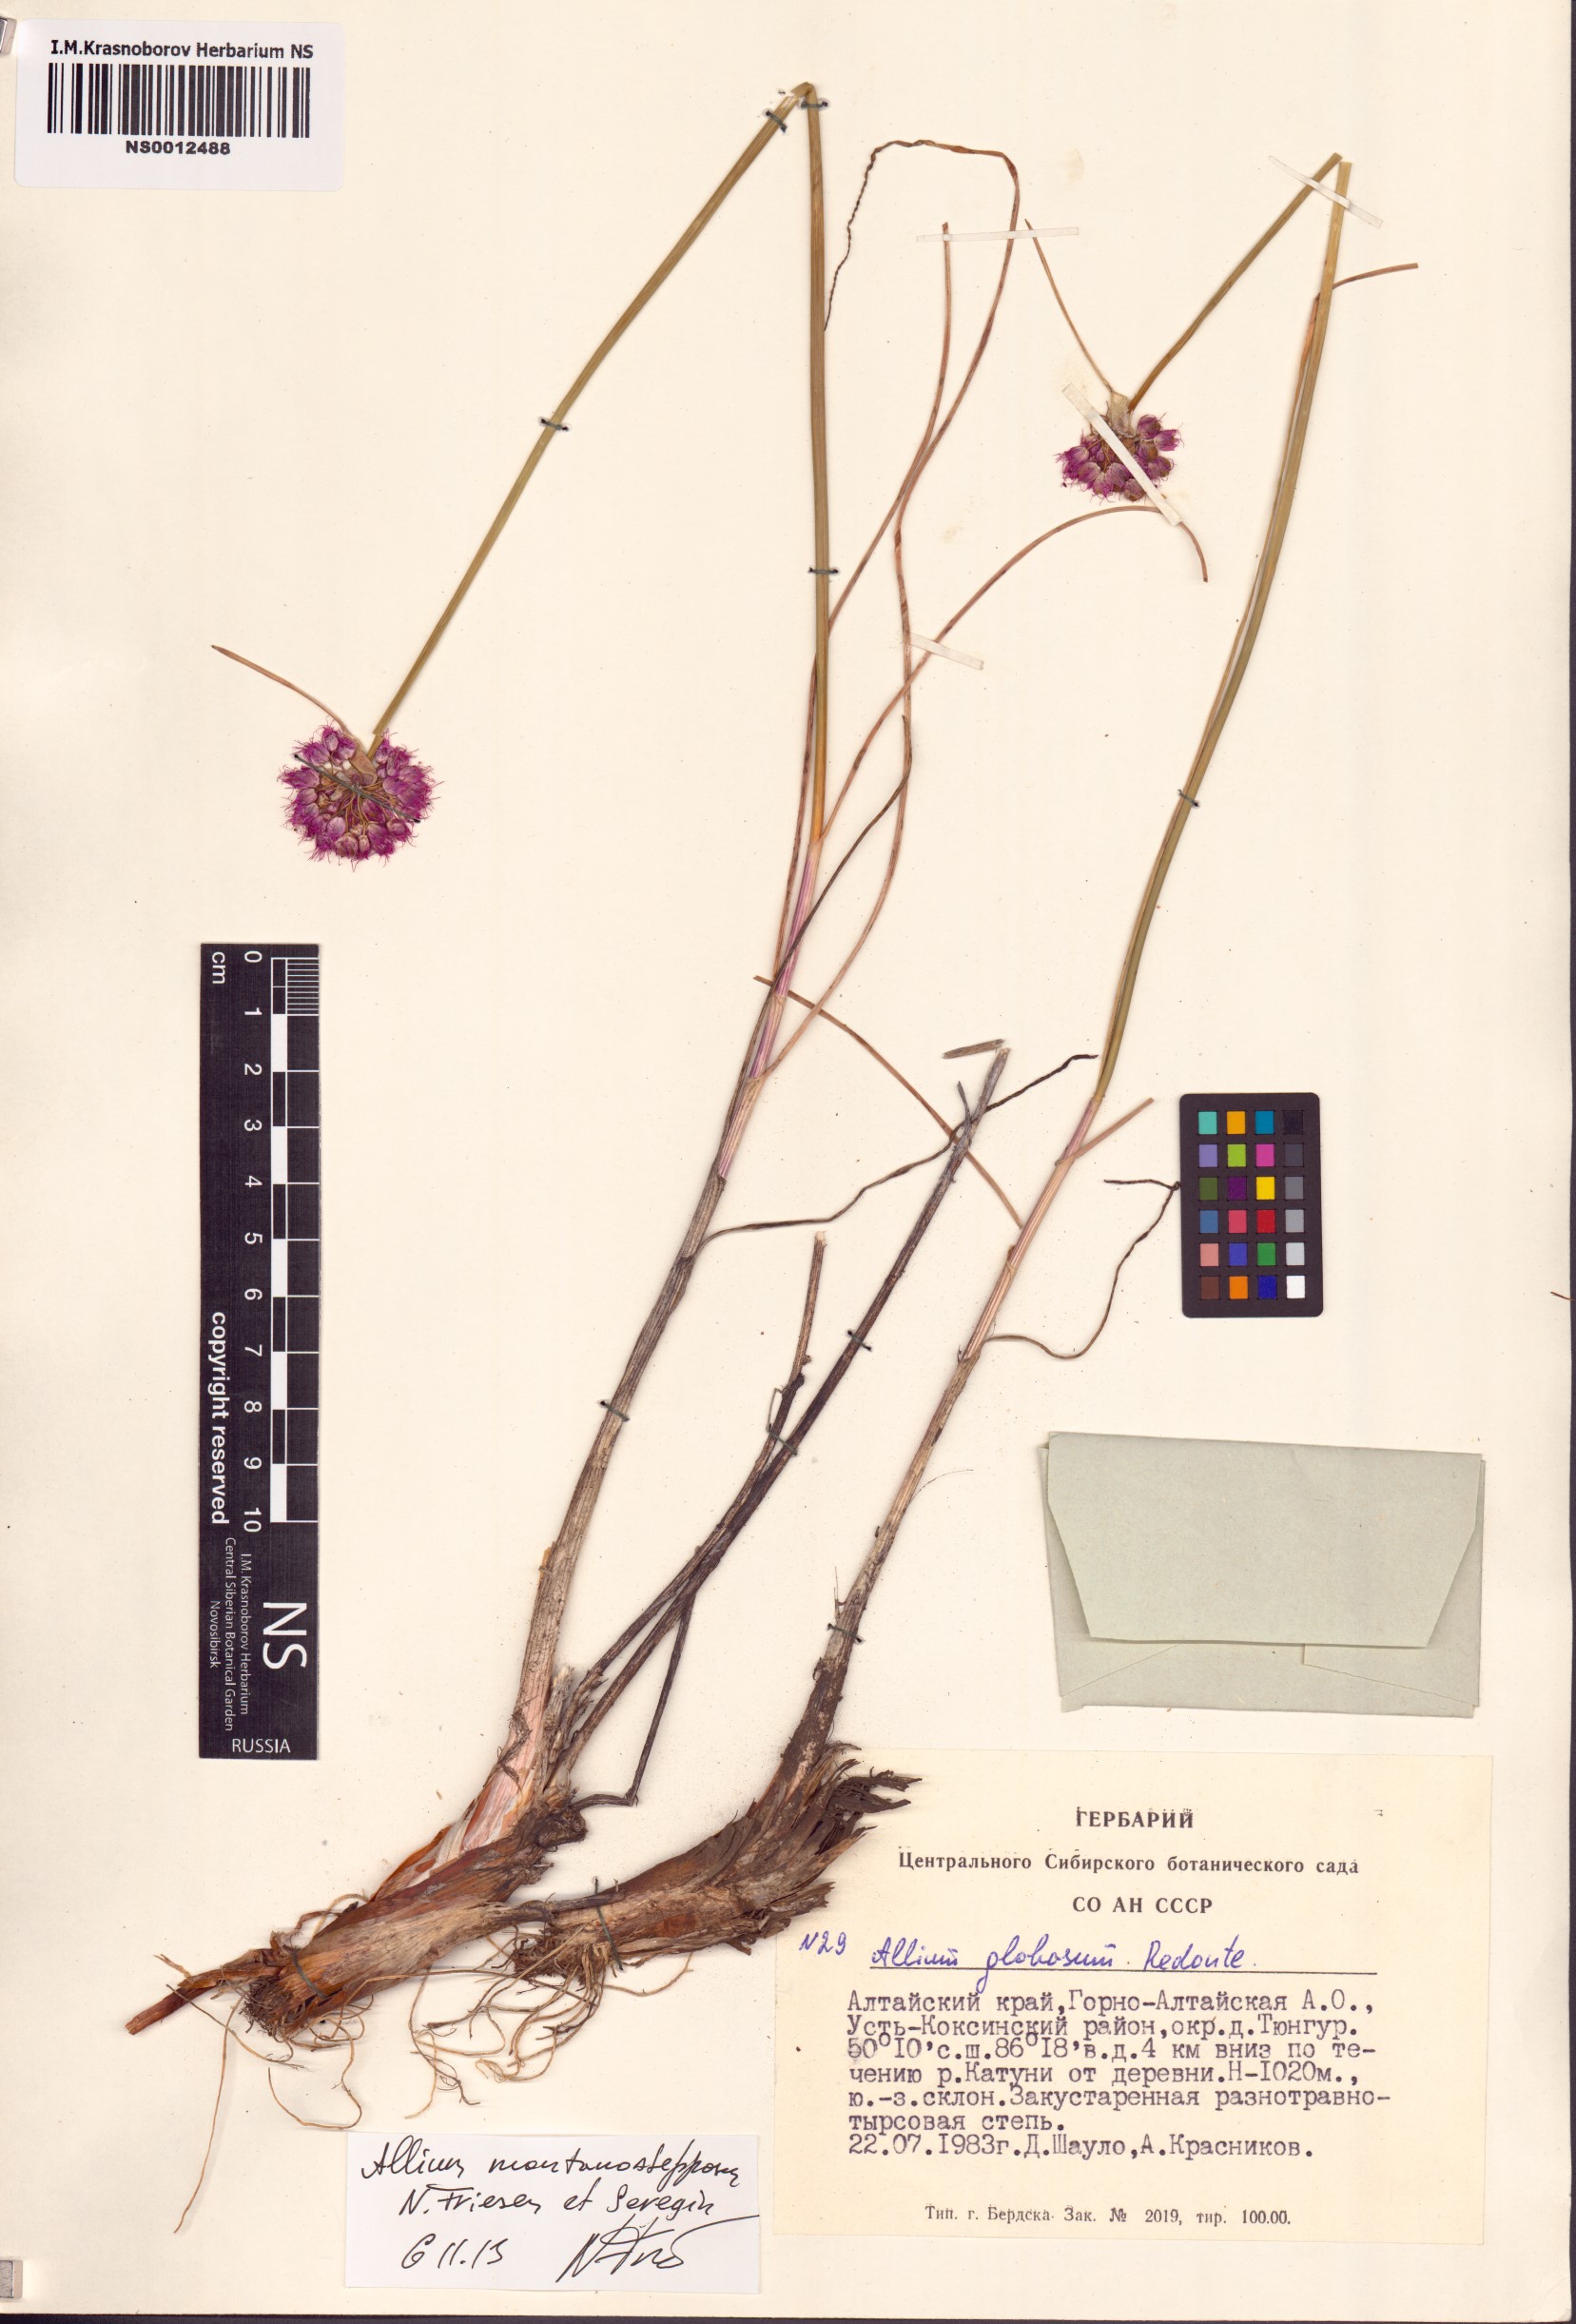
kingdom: Plantae
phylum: Tracheophyta
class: Liliopsida
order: Asparagales
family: Amaryllidaceae
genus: Allium
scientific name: Allium montanostepposum
